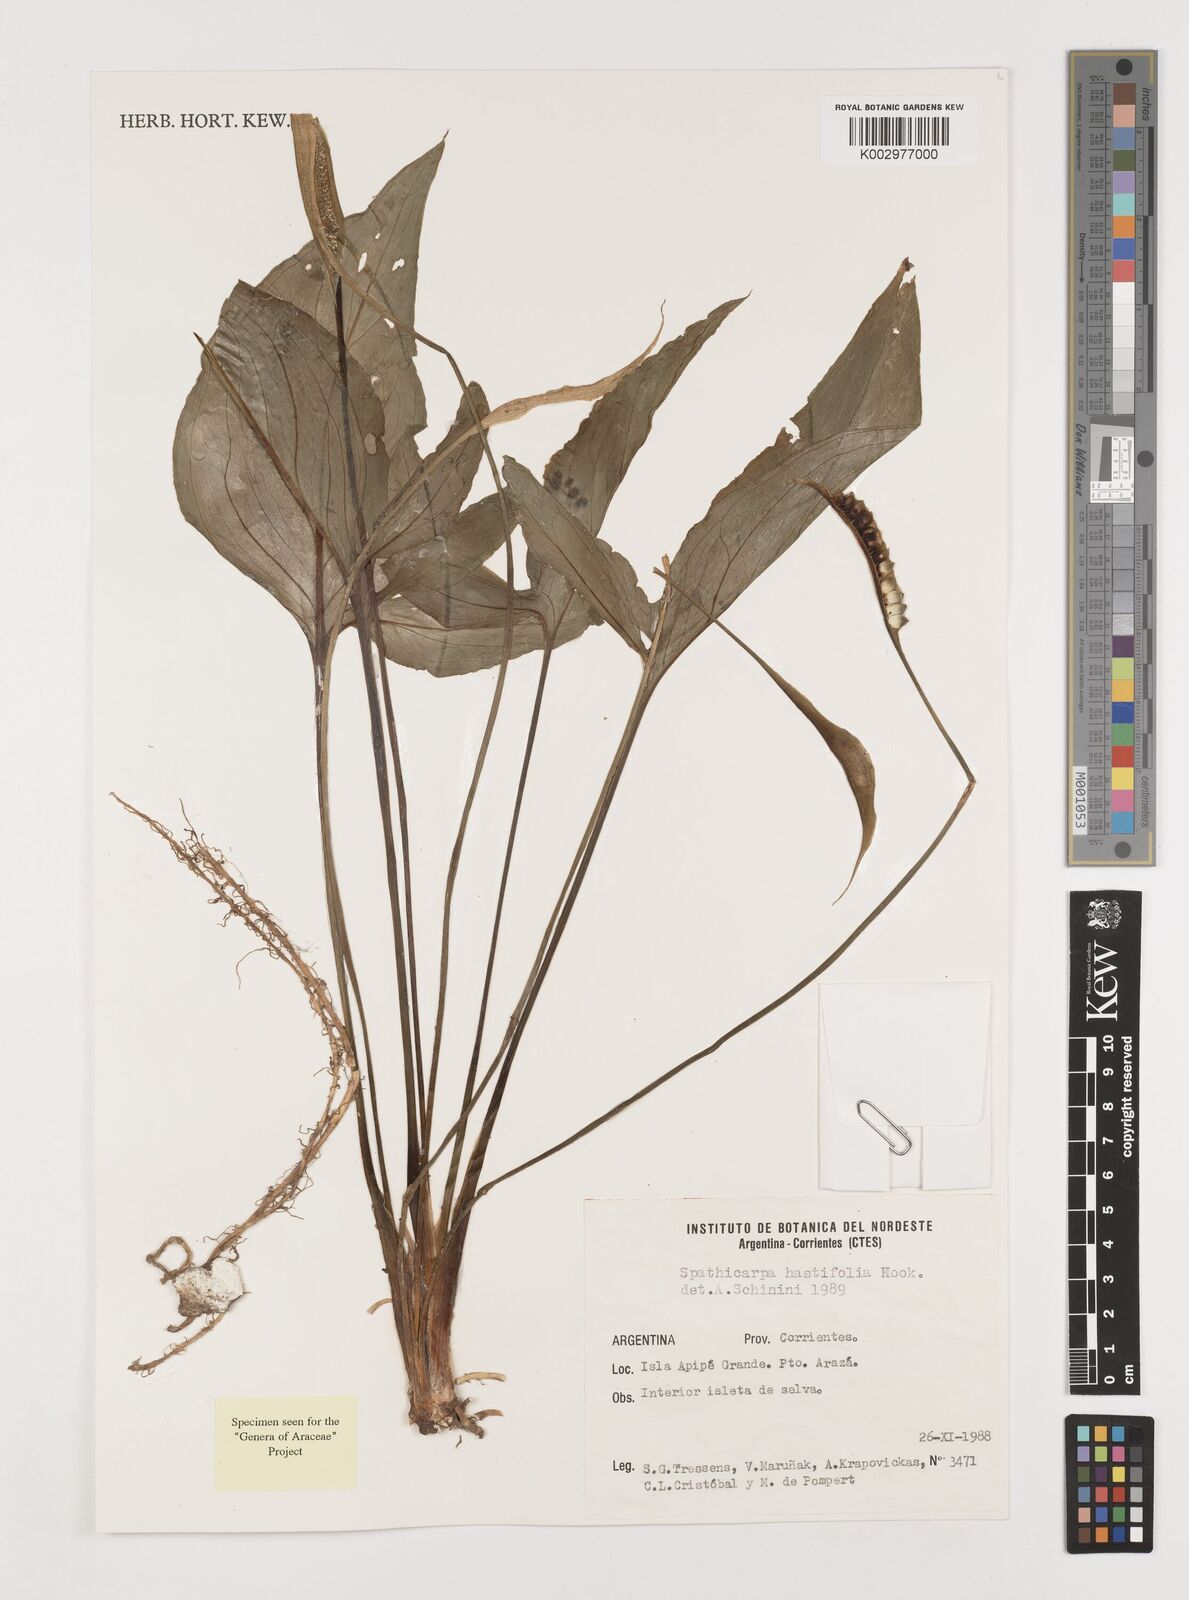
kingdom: Plantae
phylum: Tracheophyta
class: Liliopsida
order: Alismatales
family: Araceae
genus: Spathicarpa
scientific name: Spathicarpa hastifolia
